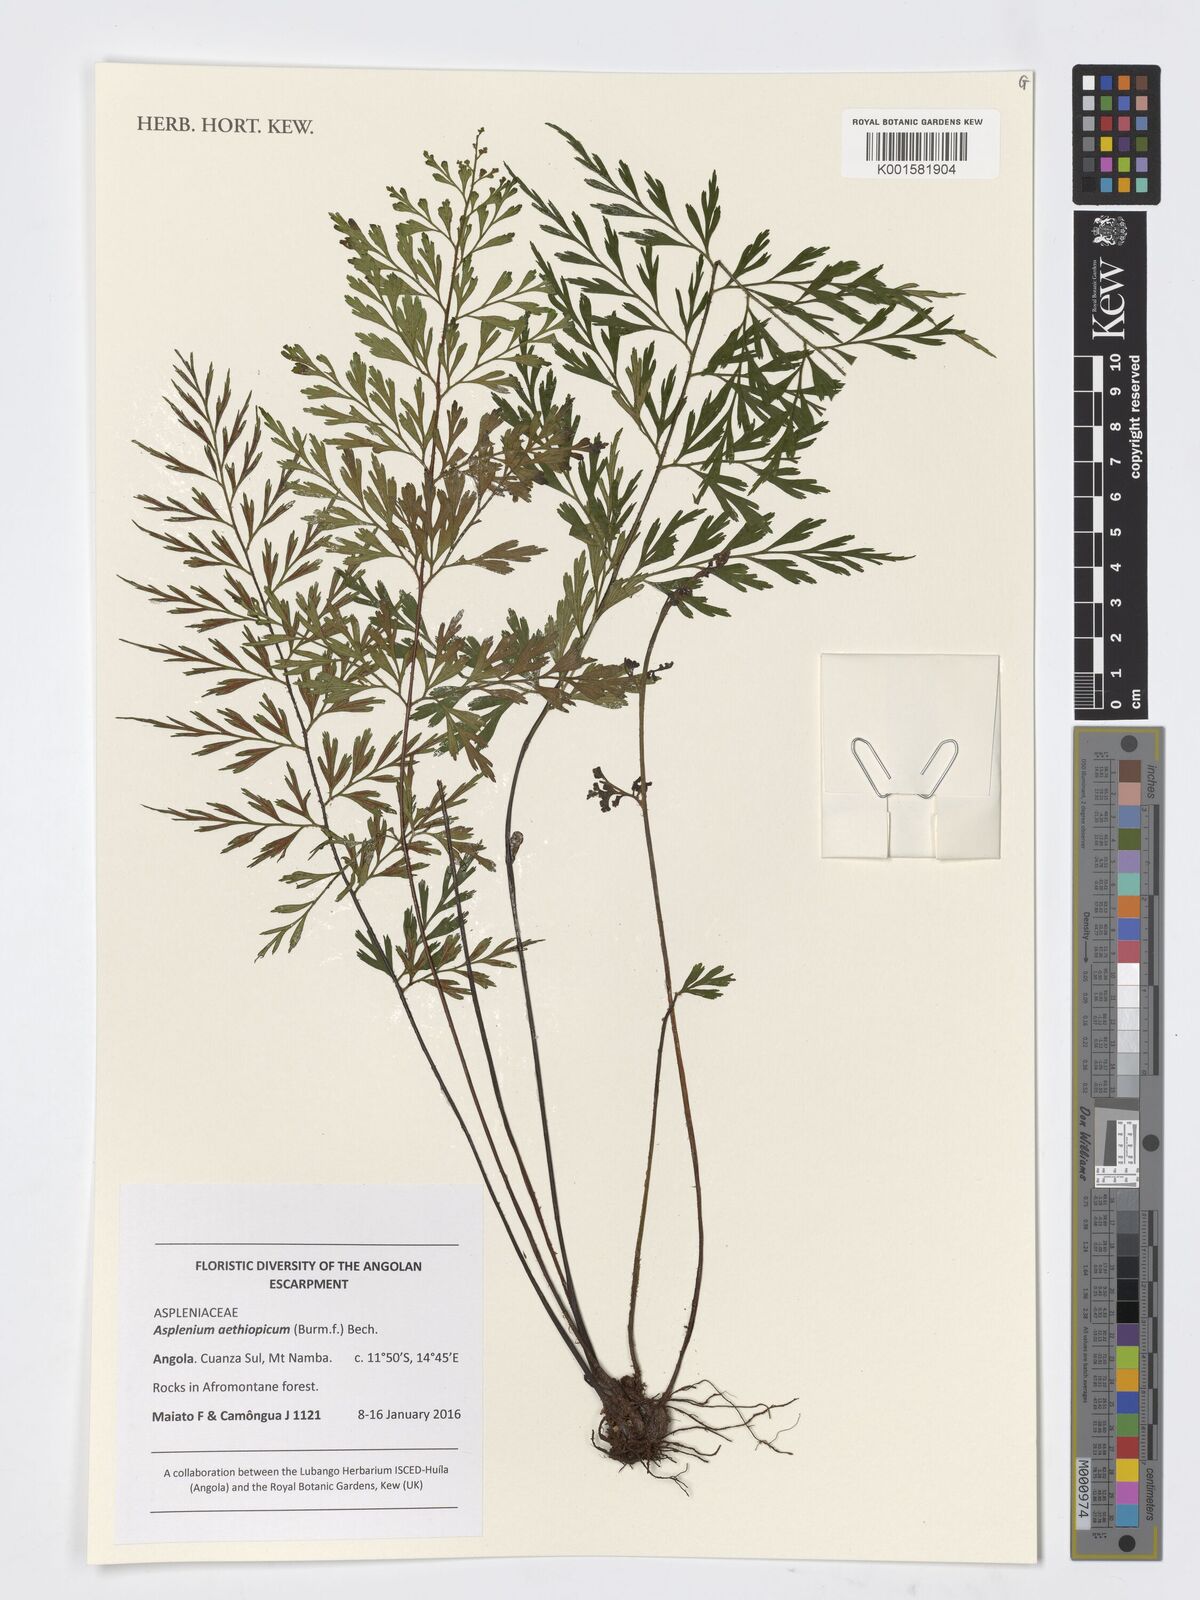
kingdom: Plantae
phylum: Tracheophyta
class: Polypodiopsida
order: Polypodiales
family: Aspleniaceae
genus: Asplenium
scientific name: Asplenium aethiopicum
